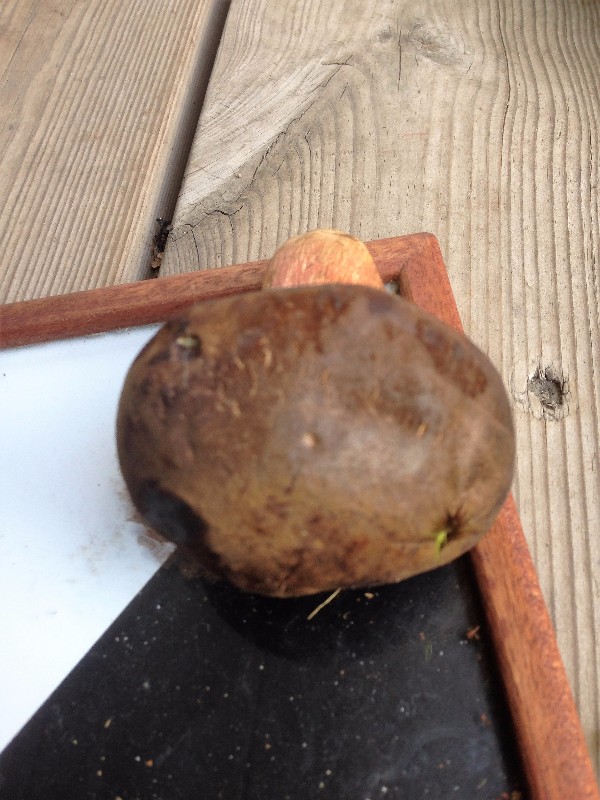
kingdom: Fungi
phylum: Basidiomycota
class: Agaricomycetes
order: Boletales
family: Boletaceae
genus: Neoboletus
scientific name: Neoboletus erythropus
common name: punktstokket indigorørhat
